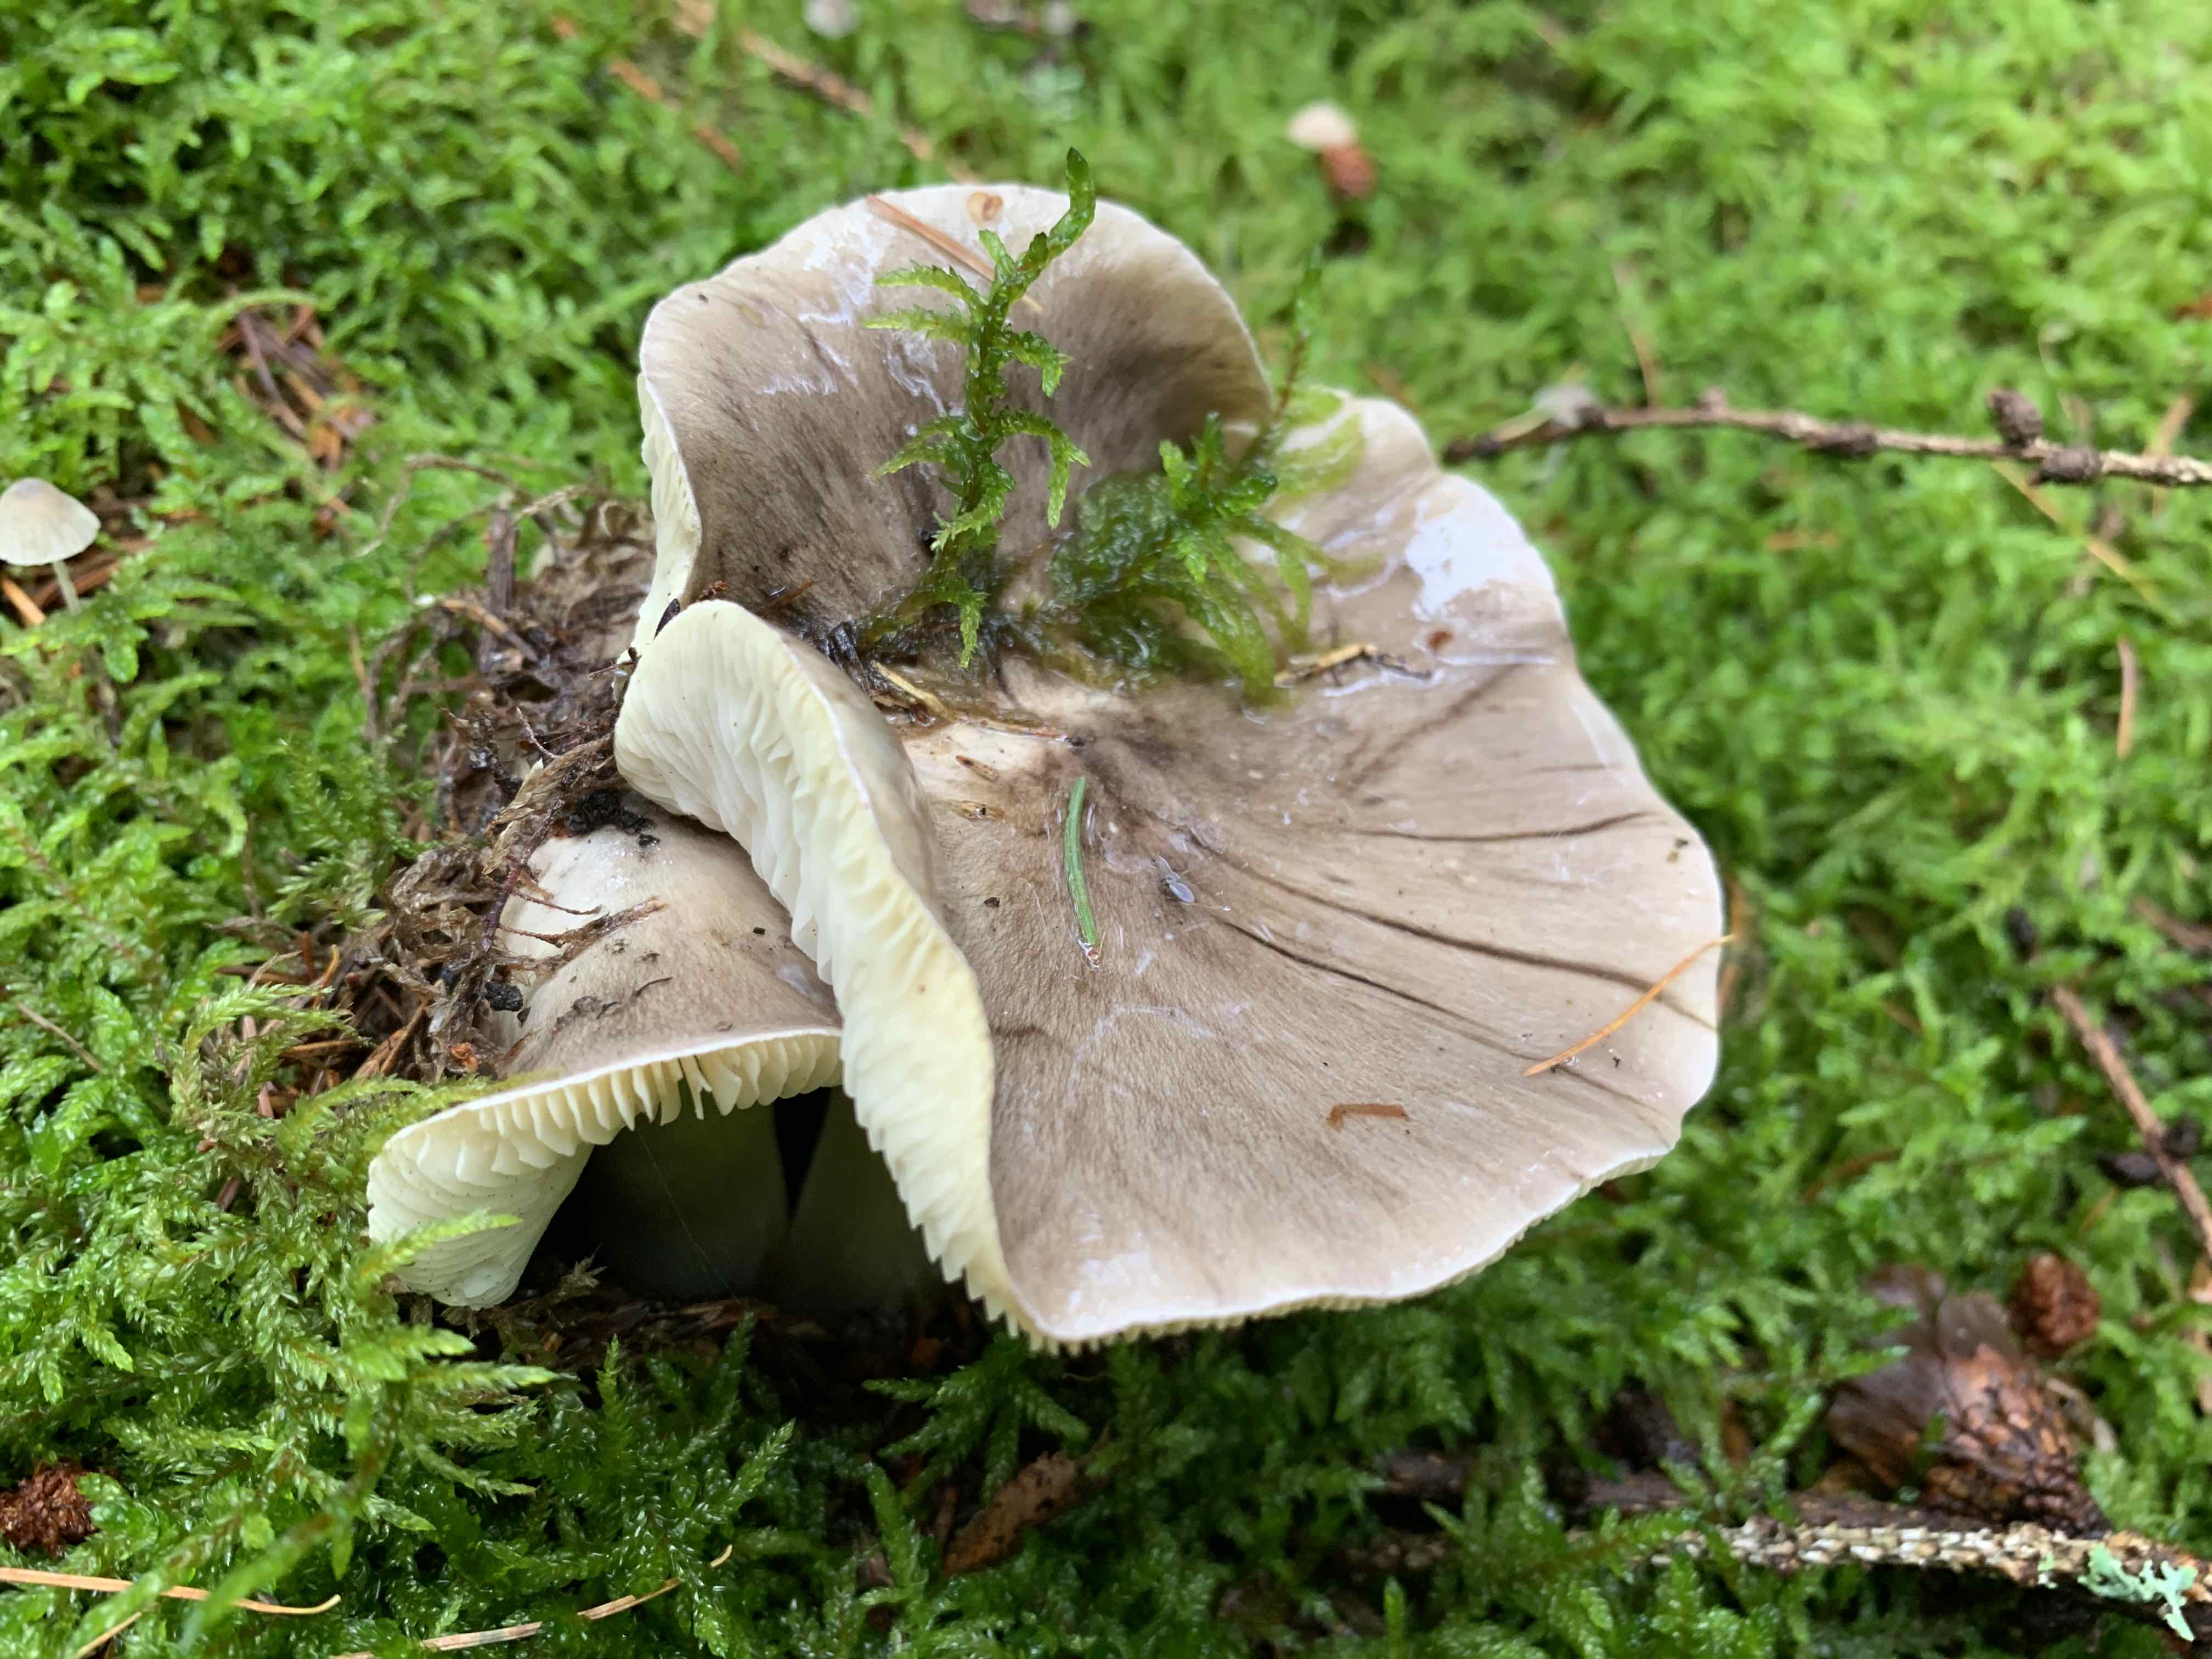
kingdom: Fungi
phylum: Basidiomycota
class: Agaricomycetes
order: Agaricales
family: Tricholomataceae
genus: Tricholoma
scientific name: Tricholoma portentosum
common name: grå ridderhat
